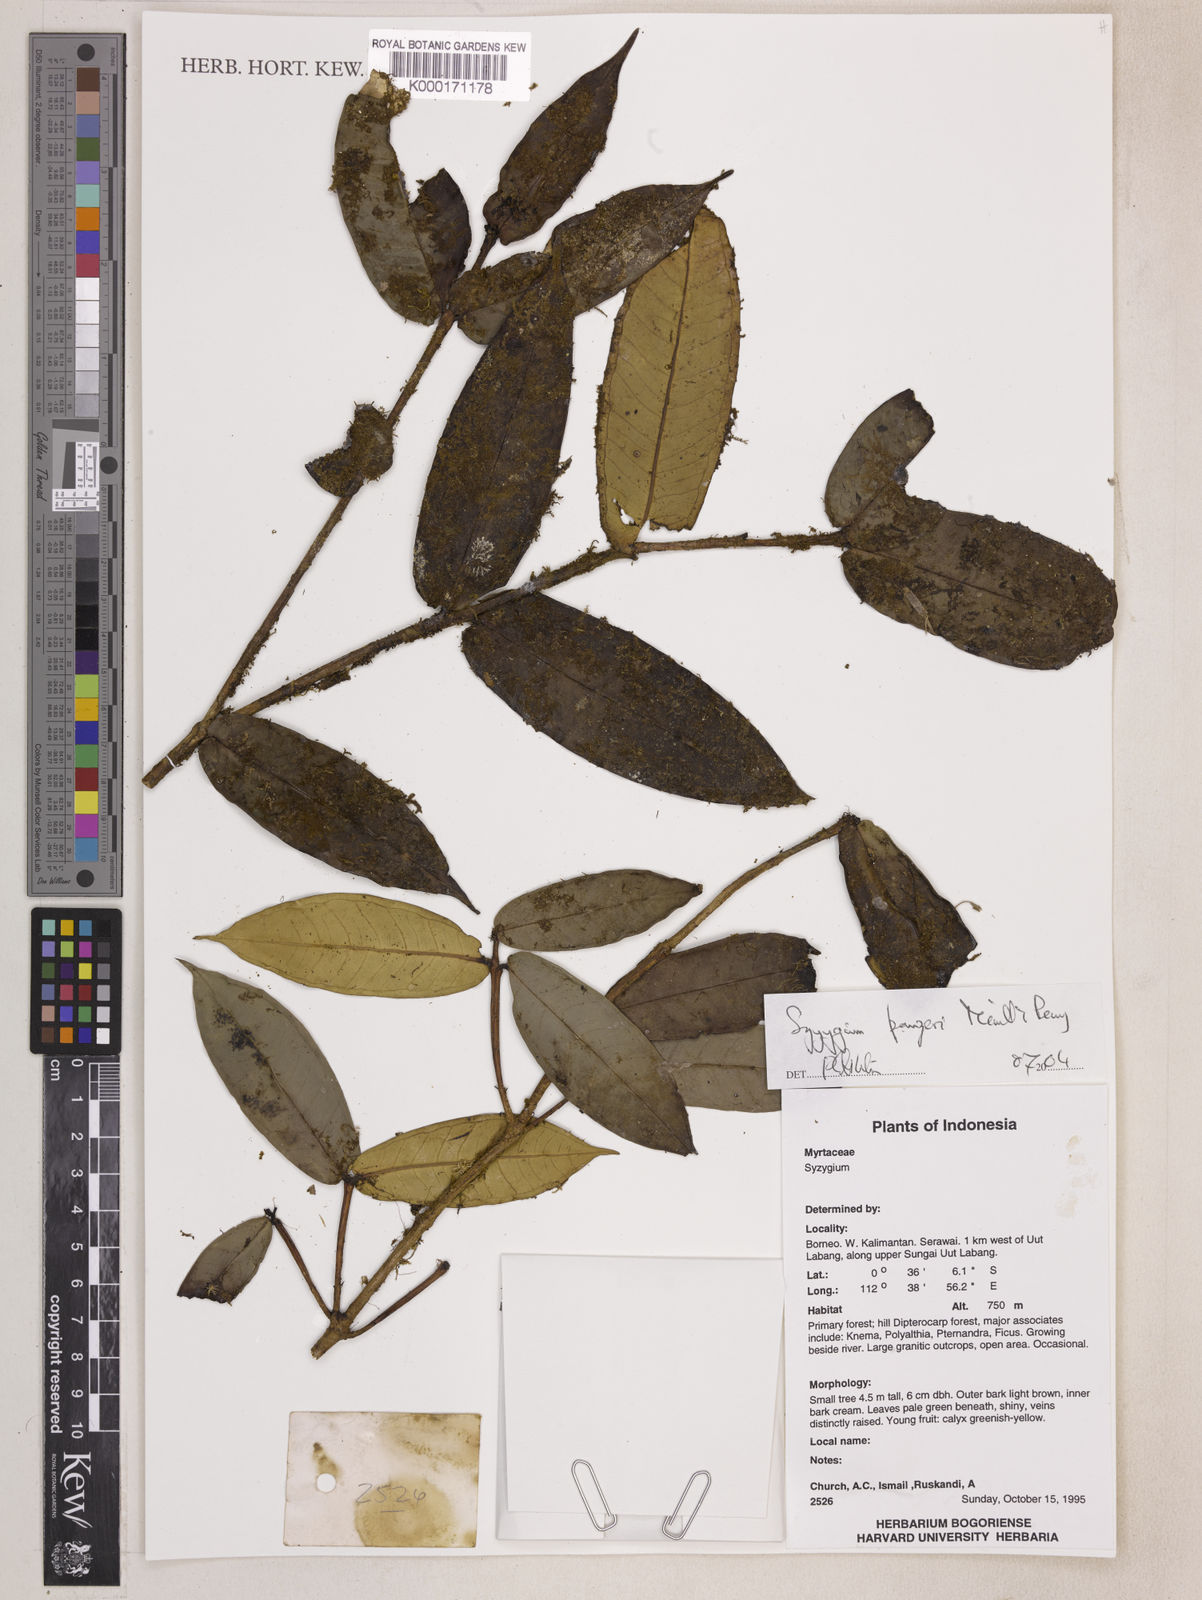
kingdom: Plantae
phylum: Tracheophyta
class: Magnoliopsida
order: Myrtales
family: Myrtaceae
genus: Syzygium
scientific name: Syzygium panzeri
